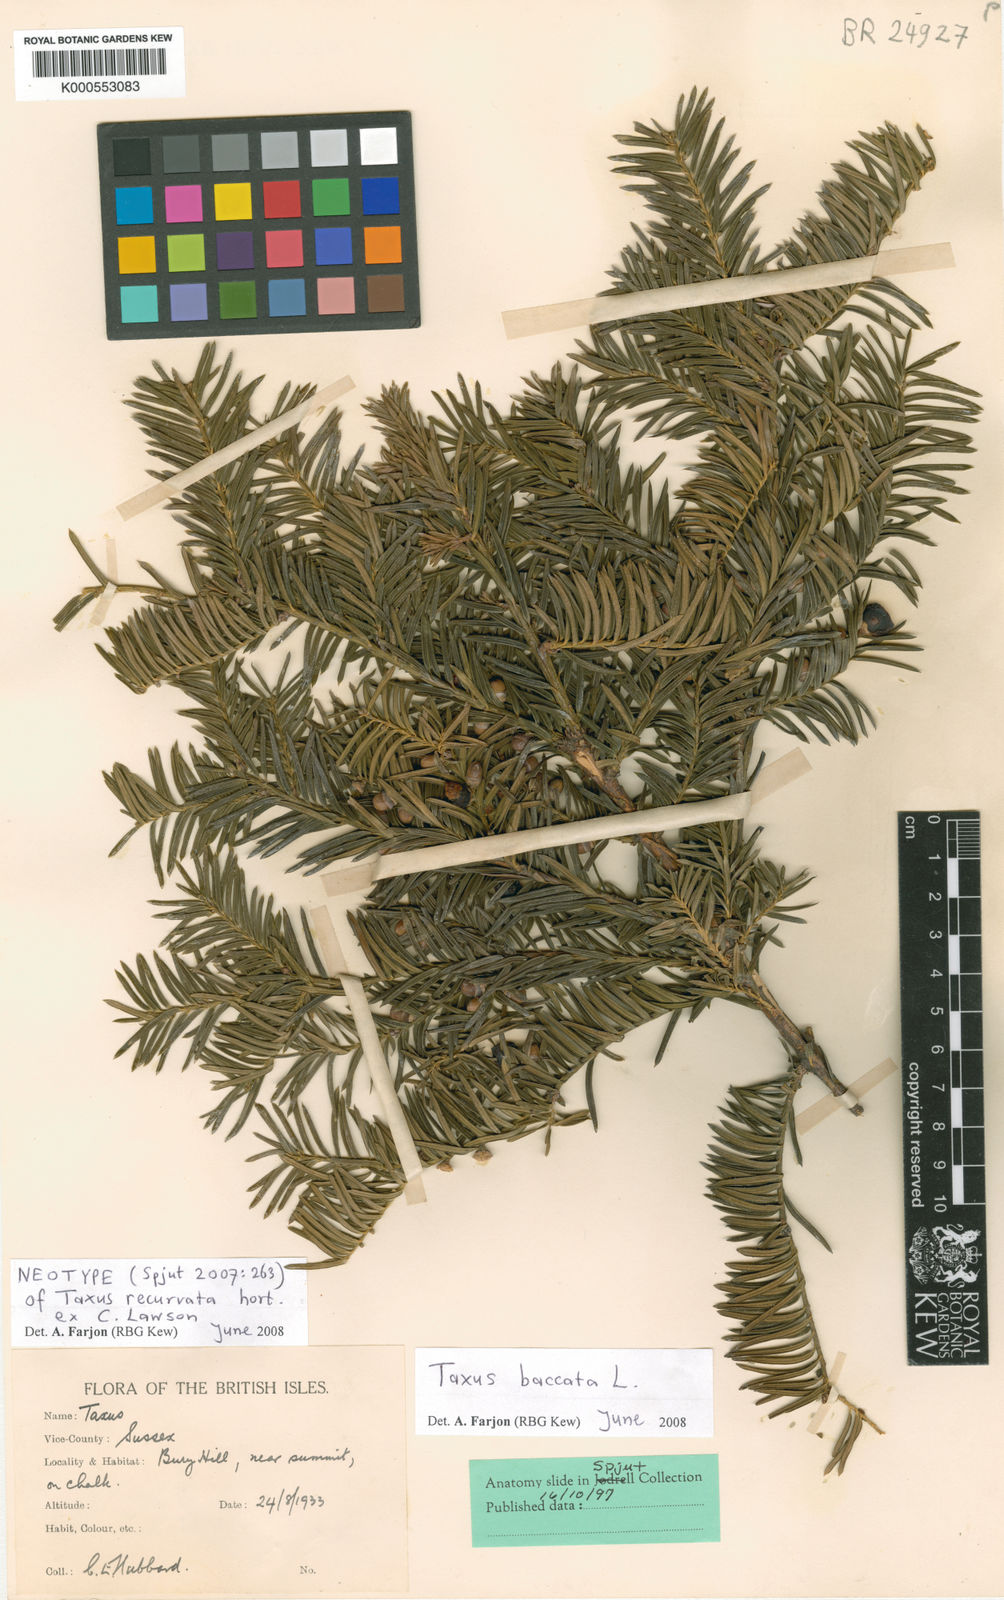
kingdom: Plantae
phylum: Tracheophyta
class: Pinopsida
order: Pinales
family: Taxaceae
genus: Taxus
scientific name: Taxus baccata
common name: Yew
